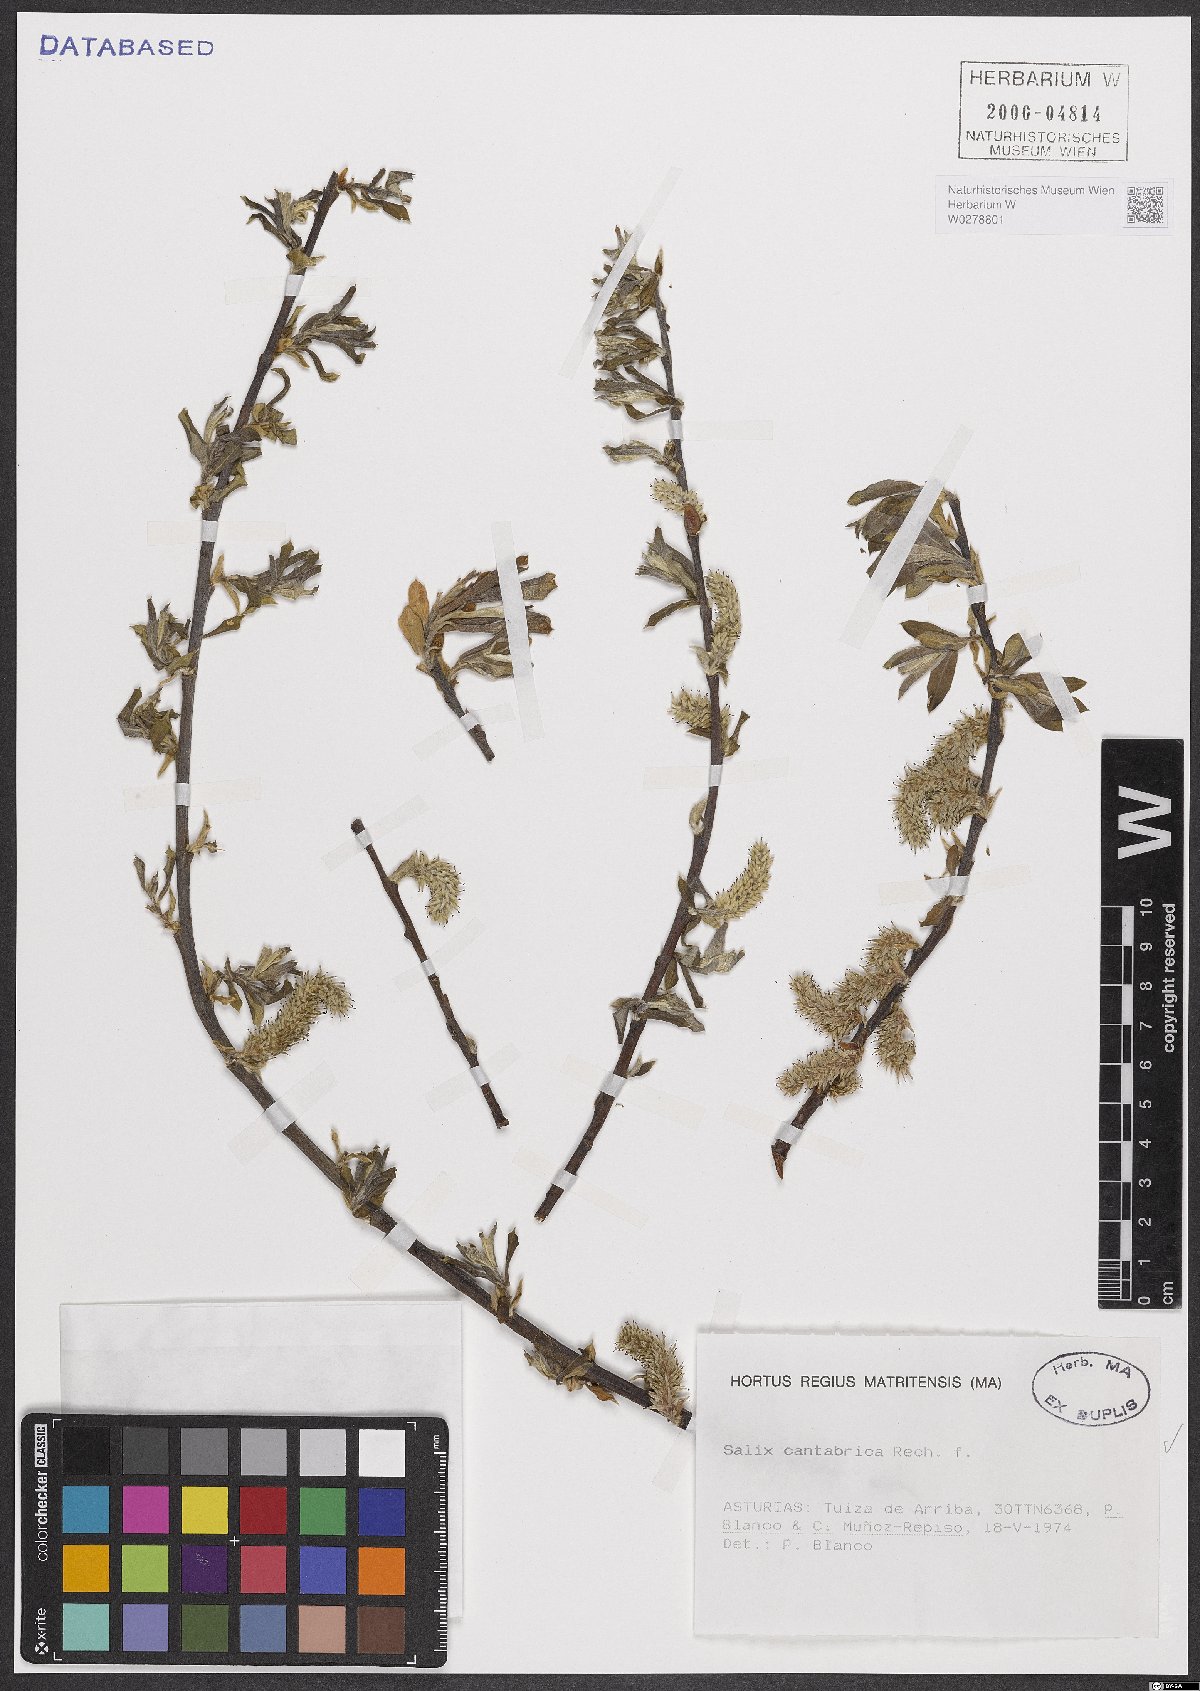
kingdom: Plantae
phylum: Tracheophyta
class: Magnoliopsida
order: Malpighiales
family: Salicaceae
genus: Salix
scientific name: Salix cantabrica
